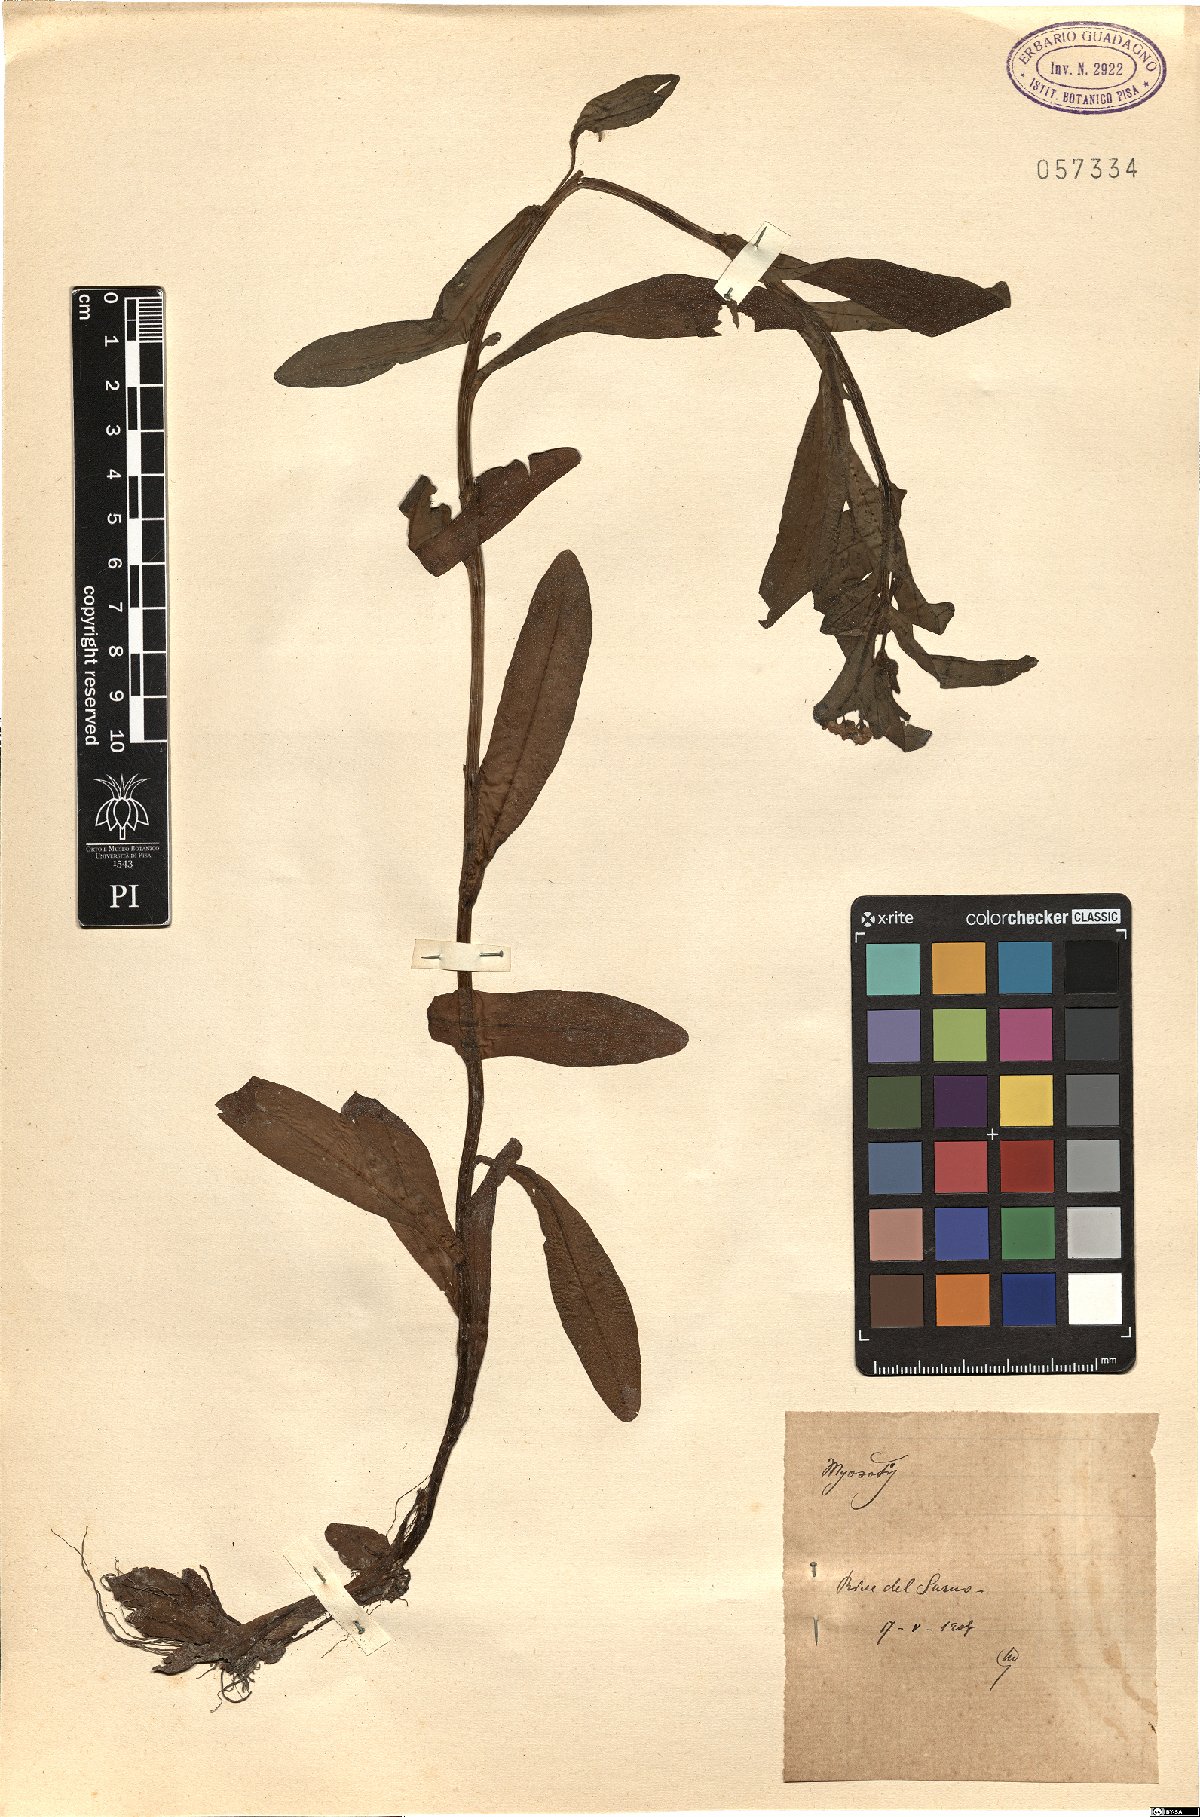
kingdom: Plantae
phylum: Tracheophyta
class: Magnoliopsida
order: Boraginales
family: Boraginaceae
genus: Myosotis
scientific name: Myosotis
